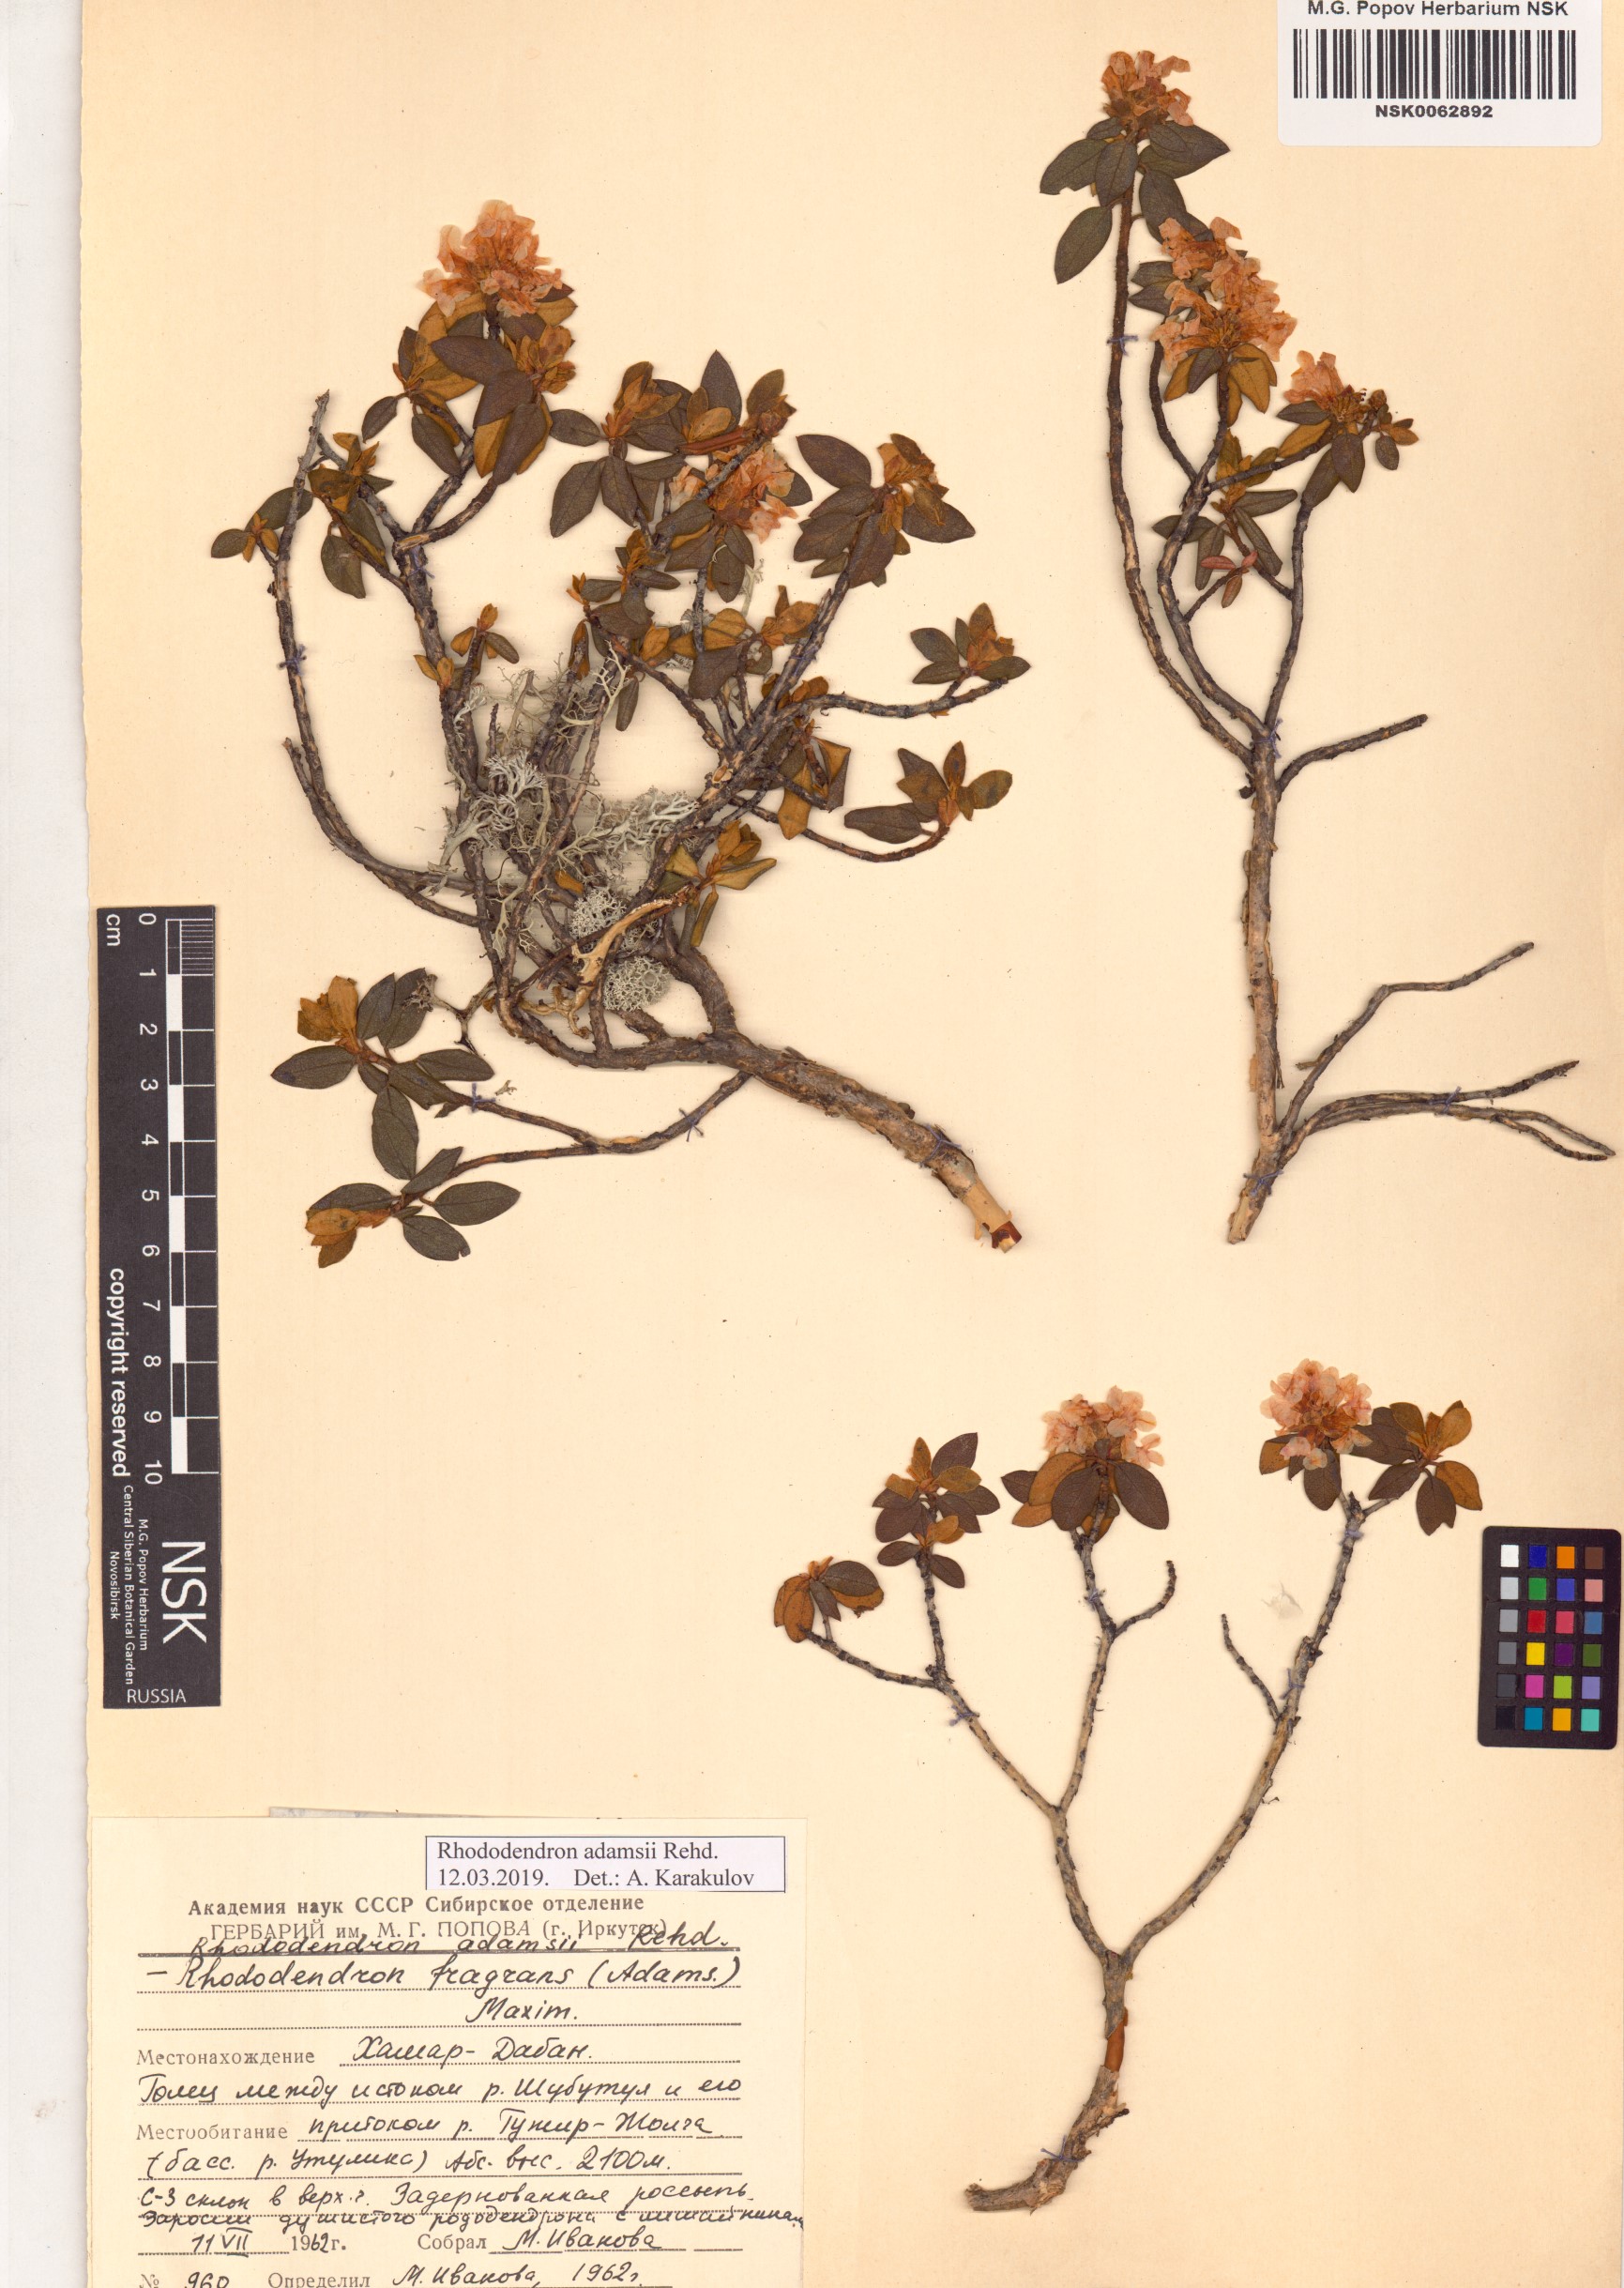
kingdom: Plantae
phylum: Tracheophyta
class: Magnoliopsida
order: Ericales
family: Ericaceae
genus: Rhododendron
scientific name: Rhododendron adamsii
